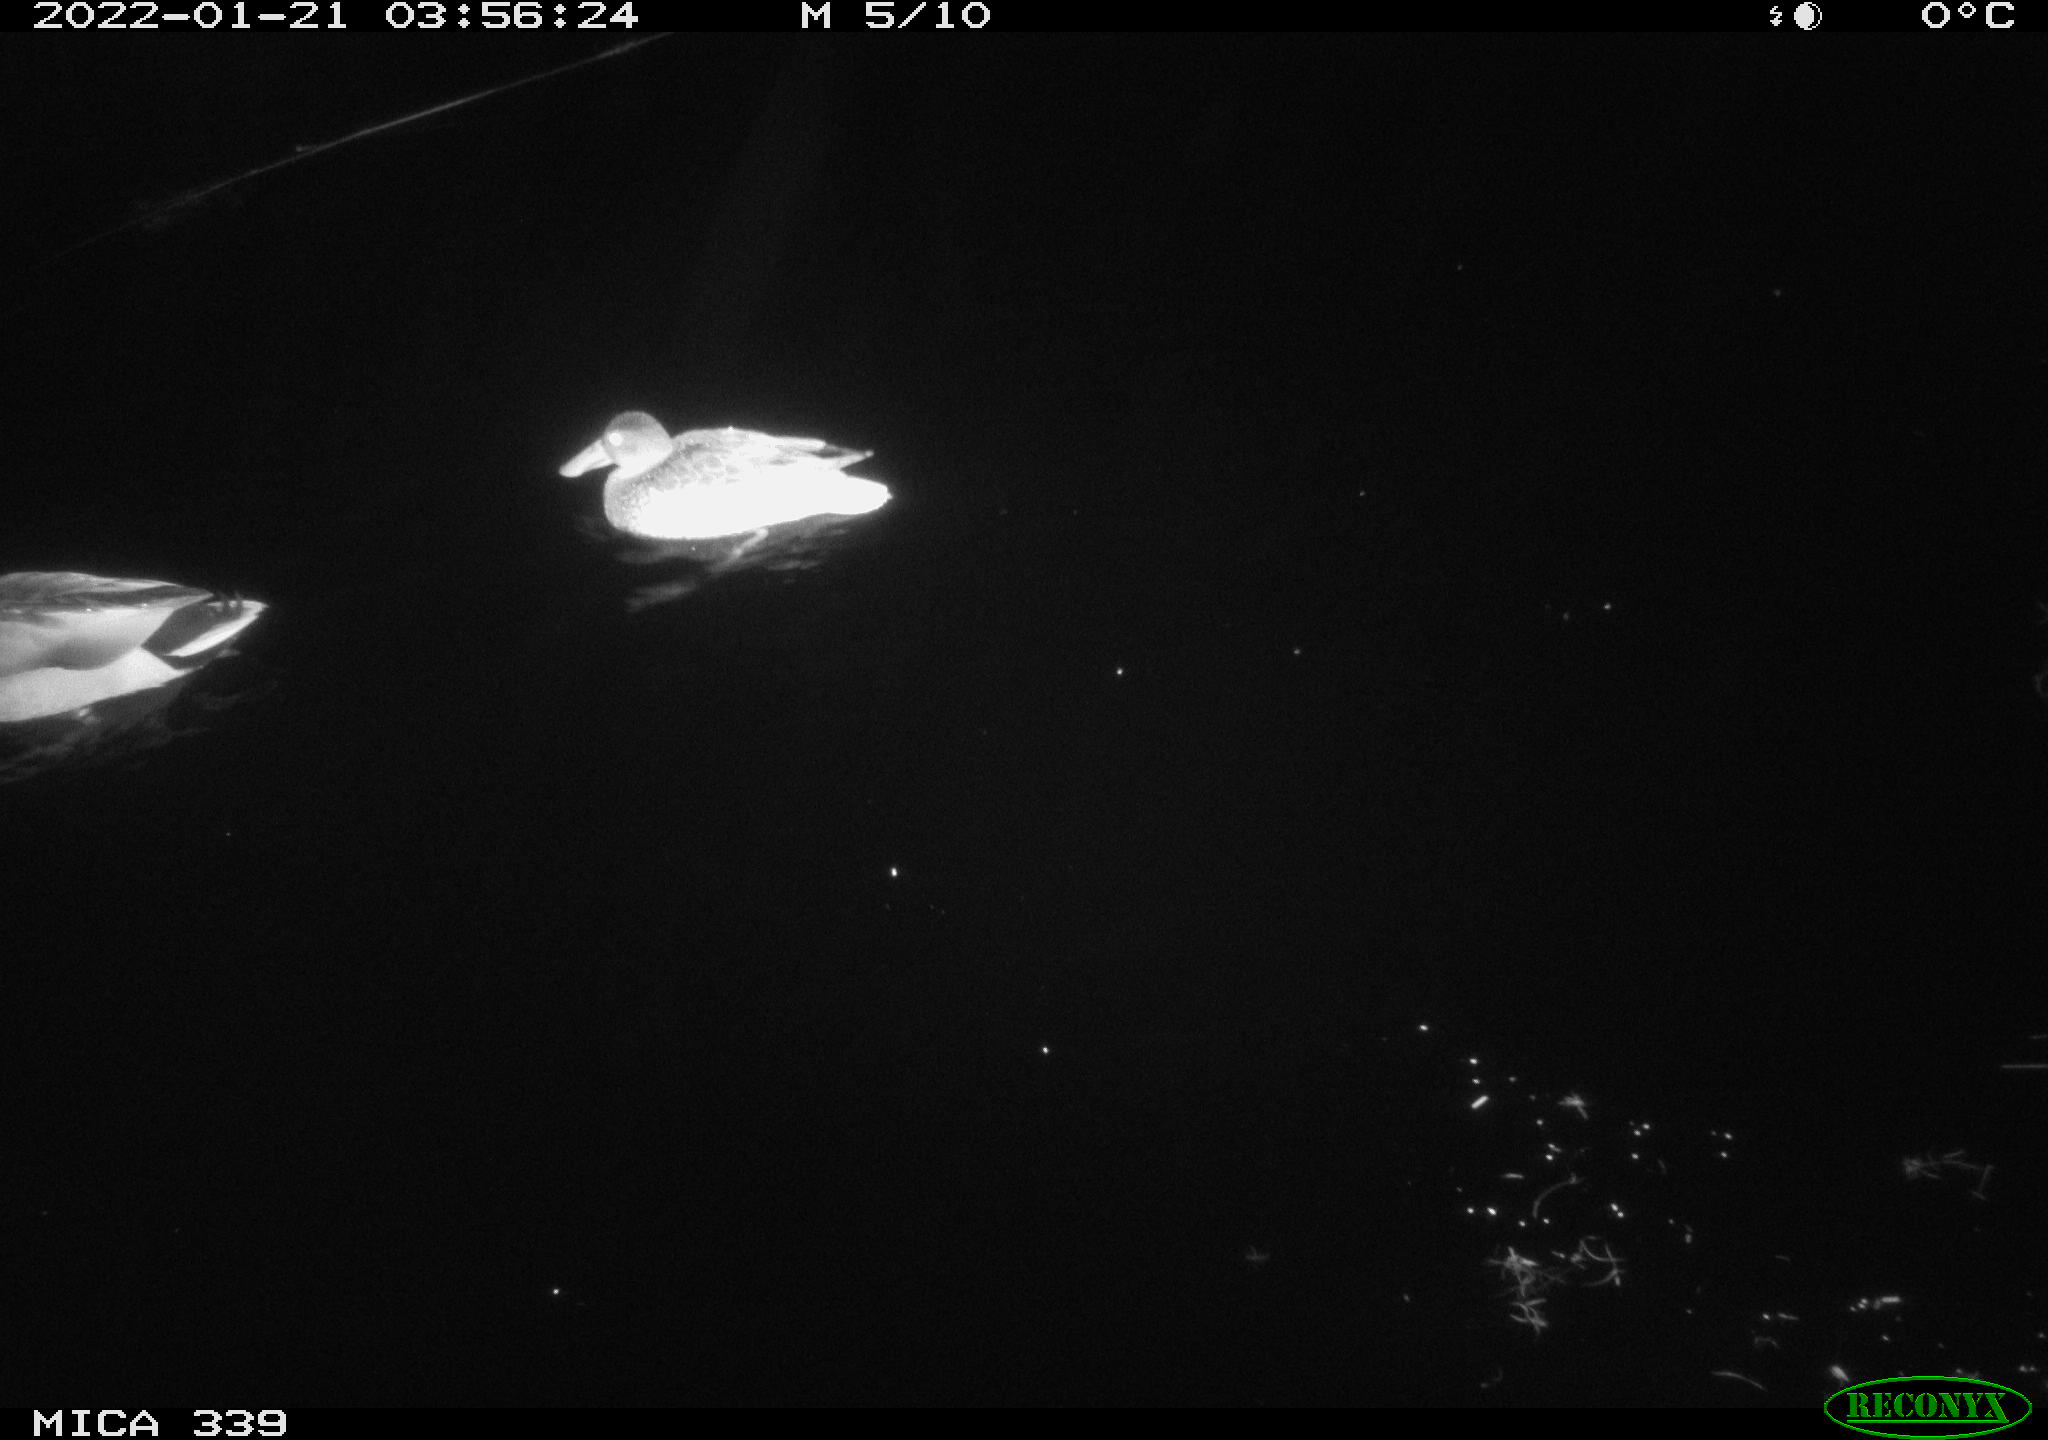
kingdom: Animalia
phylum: Chordata
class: Aves
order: Anseriformes
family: Anatidae
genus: Anas
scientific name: Anas platyrhynchos
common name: Mallard
